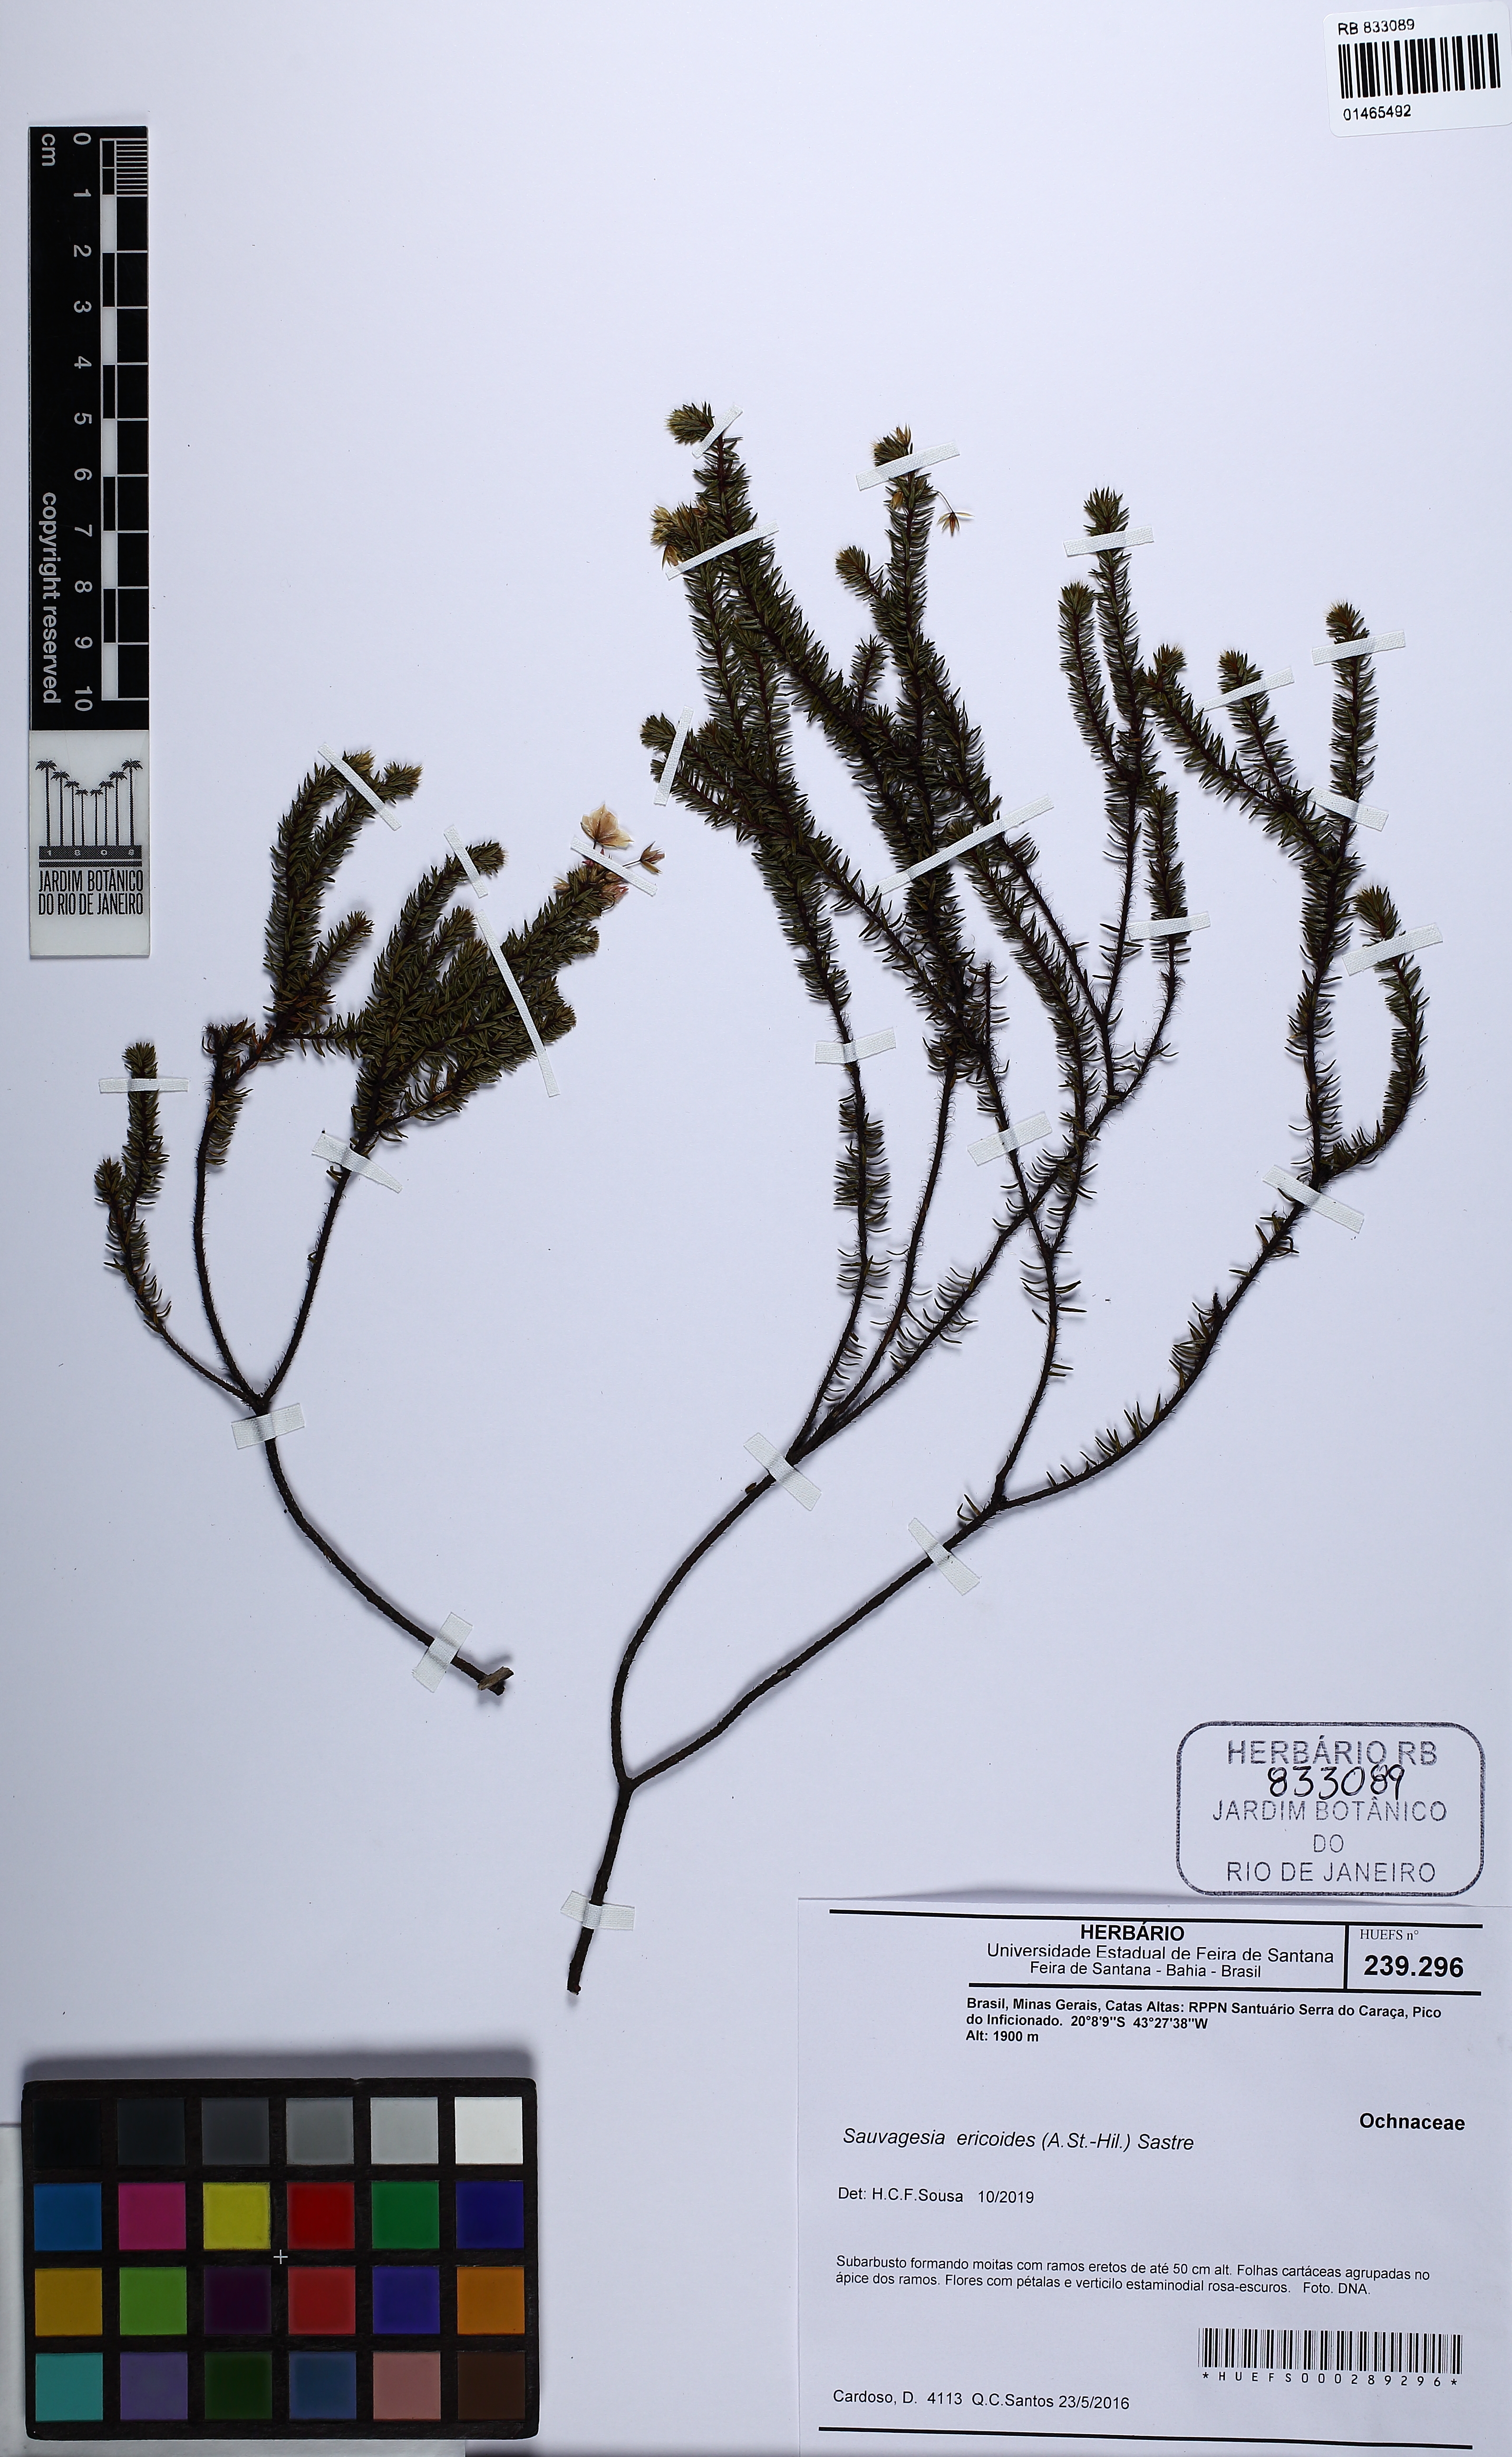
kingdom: Plantae
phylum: Tracheophyta
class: Magnoliopsida
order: Malpighiales
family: Ochnaceae
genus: Sauvagesia
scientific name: Sauvagesia ericoides
